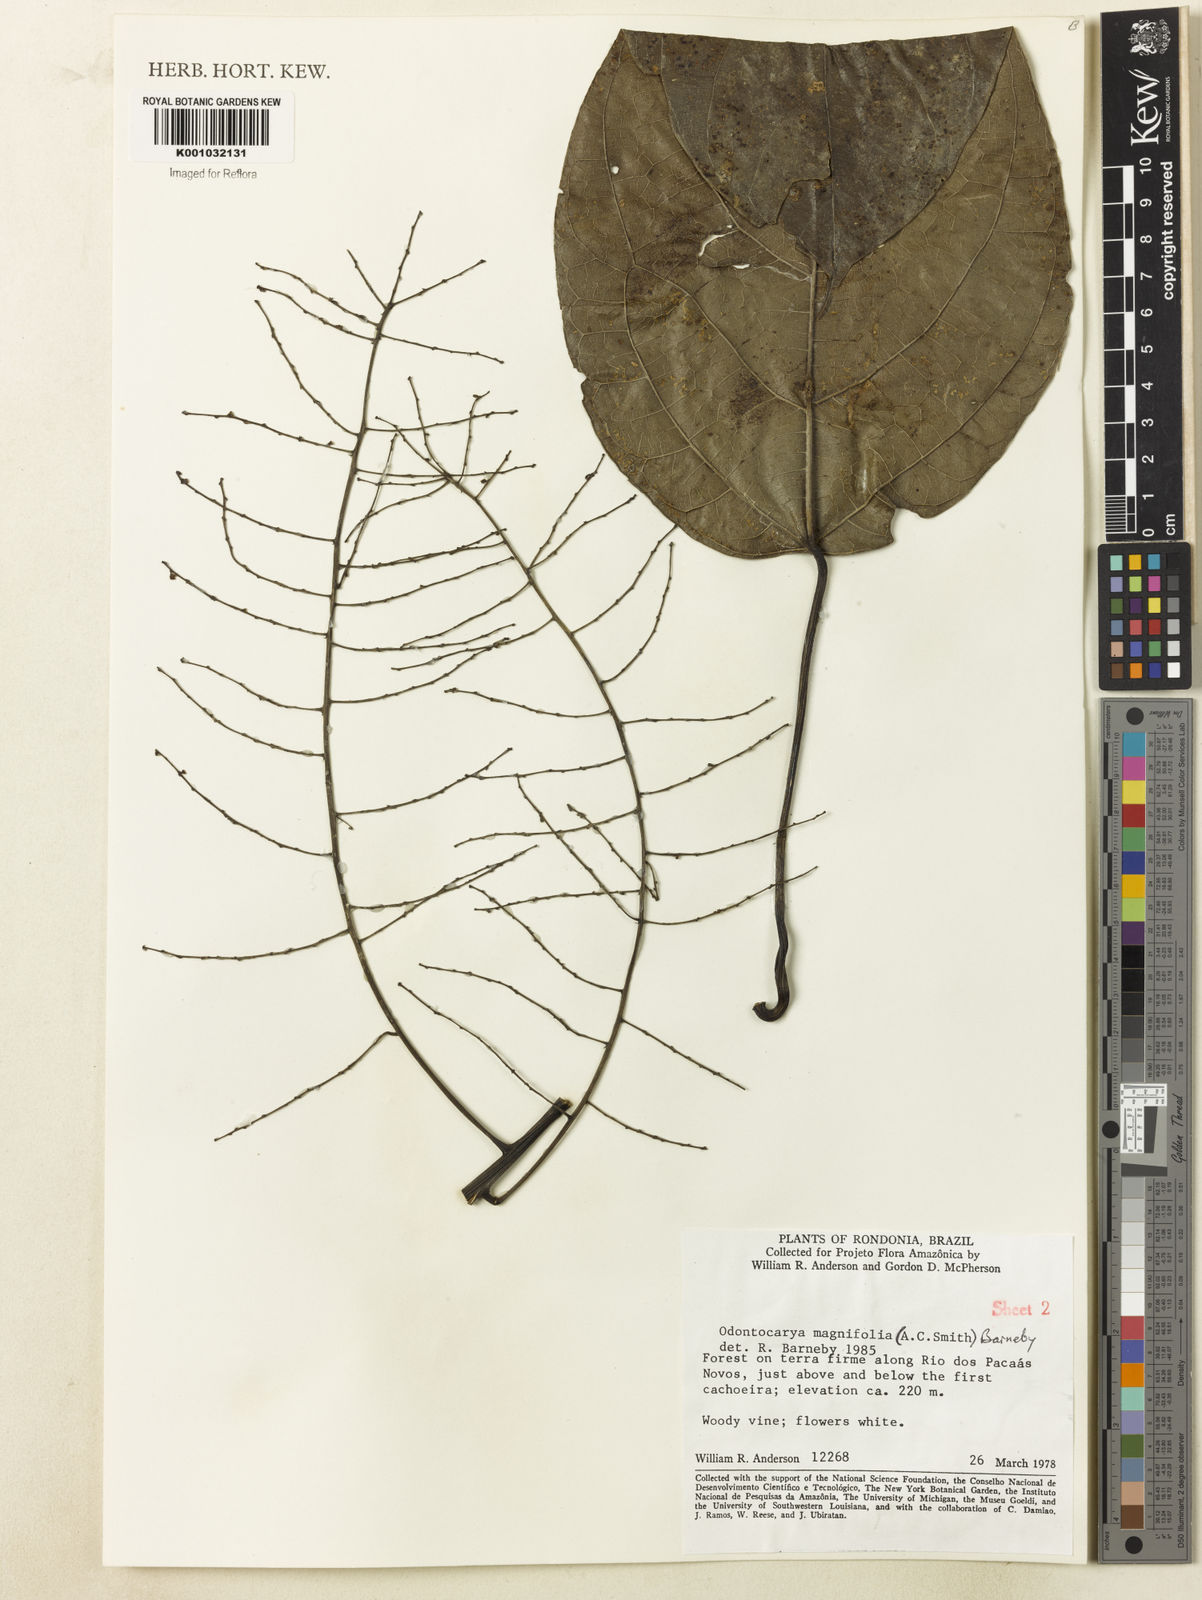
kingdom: Plantae
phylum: Tracheophyta
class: Magnoliopsida
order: Ranunculales
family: Menispermaceae
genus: Odontocarya
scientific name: Odontocarya magnifolia
